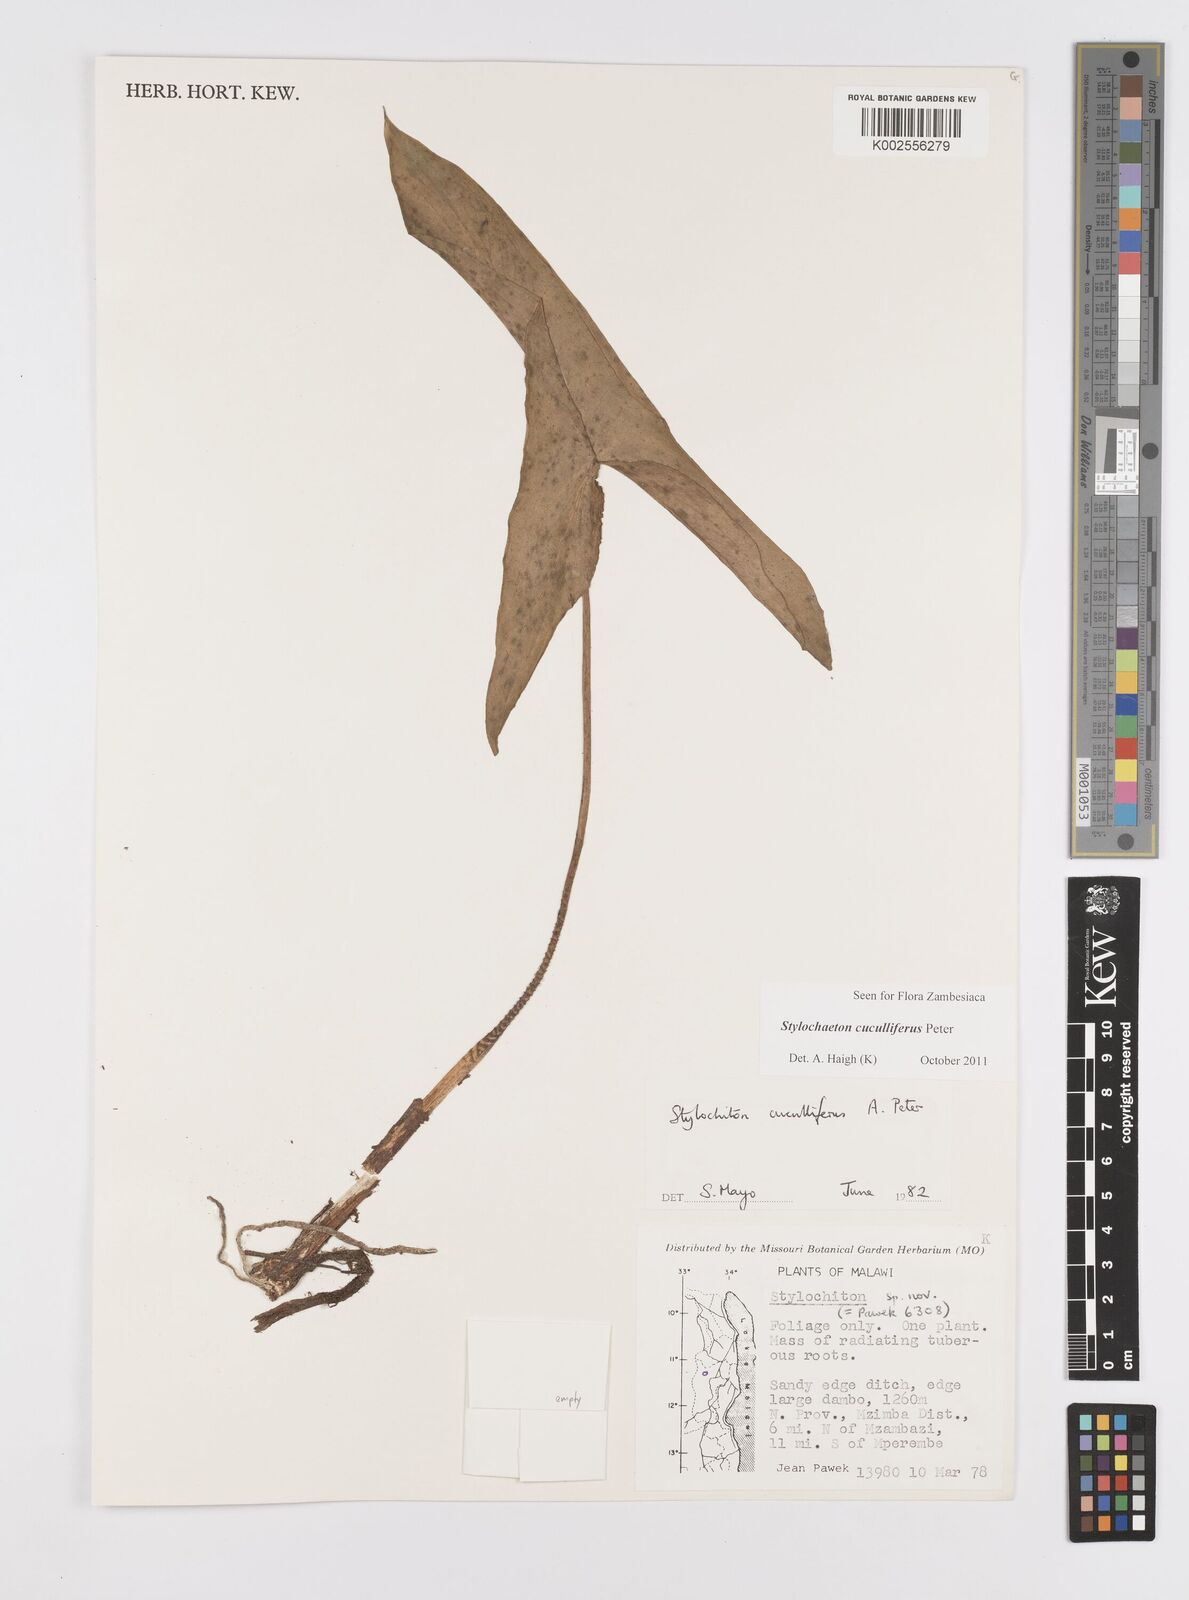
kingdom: Plantae
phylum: Tracheophyta
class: Liliopsida
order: Alismatales
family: Araceae
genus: Stylochaeton
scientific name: Stylochaeton cuculliferum
